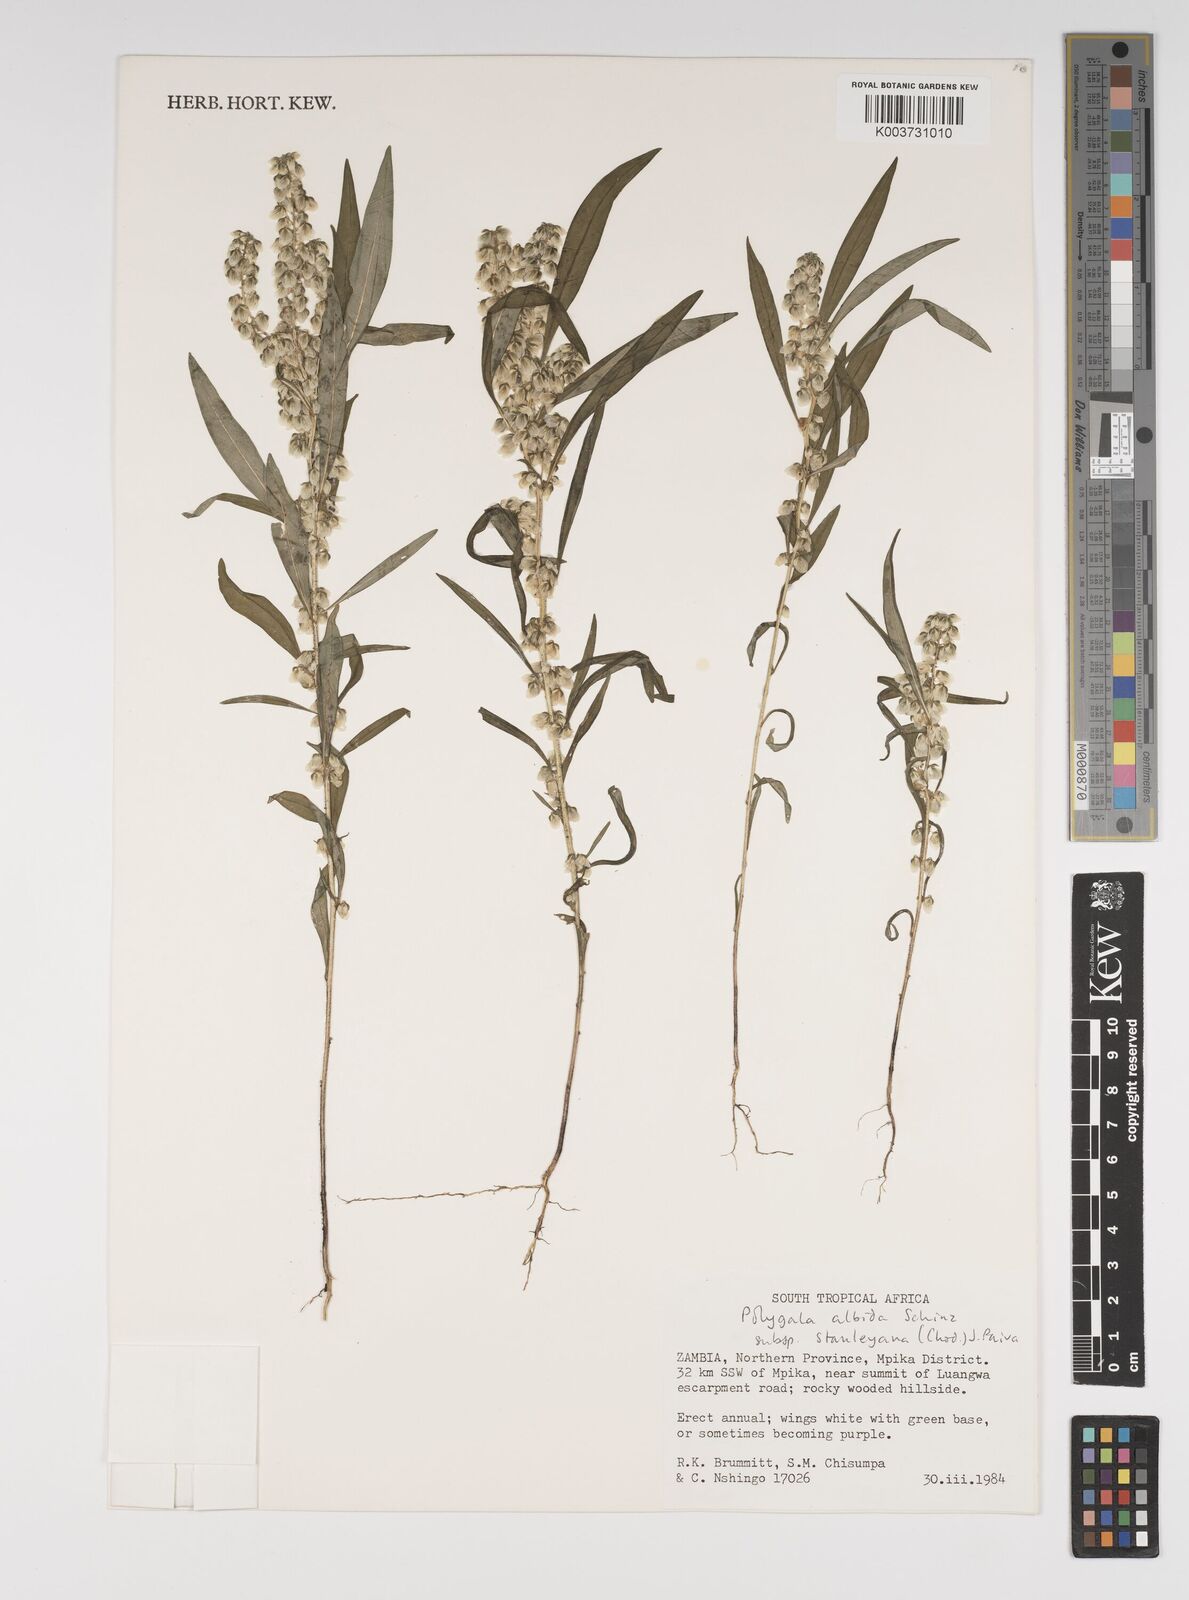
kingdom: Plantae
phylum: Tracheophyta
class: Magnoliopsida
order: Fabales
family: Polygalaceae
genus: Polygala
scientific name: Polygala albida
